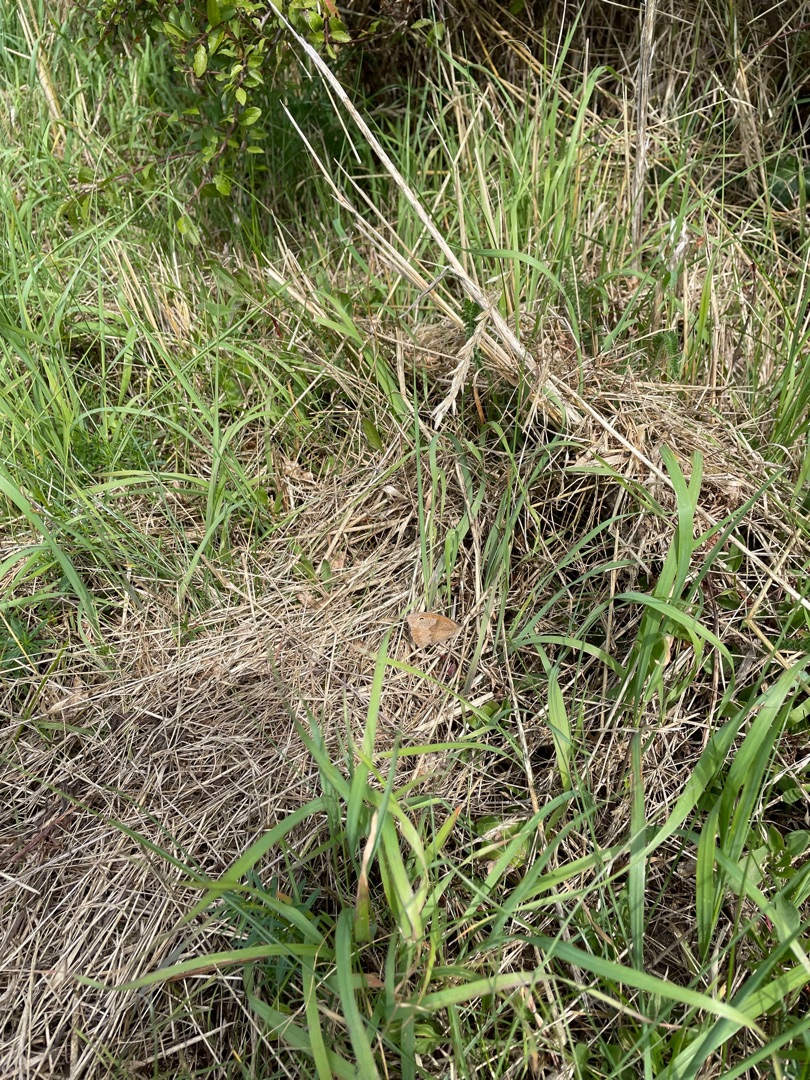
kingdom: Animalia
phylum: Arthropoda
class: Insecta
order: Lepidoptera
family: Nymphalidae
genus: Aphantopus
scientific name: Aphantopus hyperantus
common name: Engrandøje
